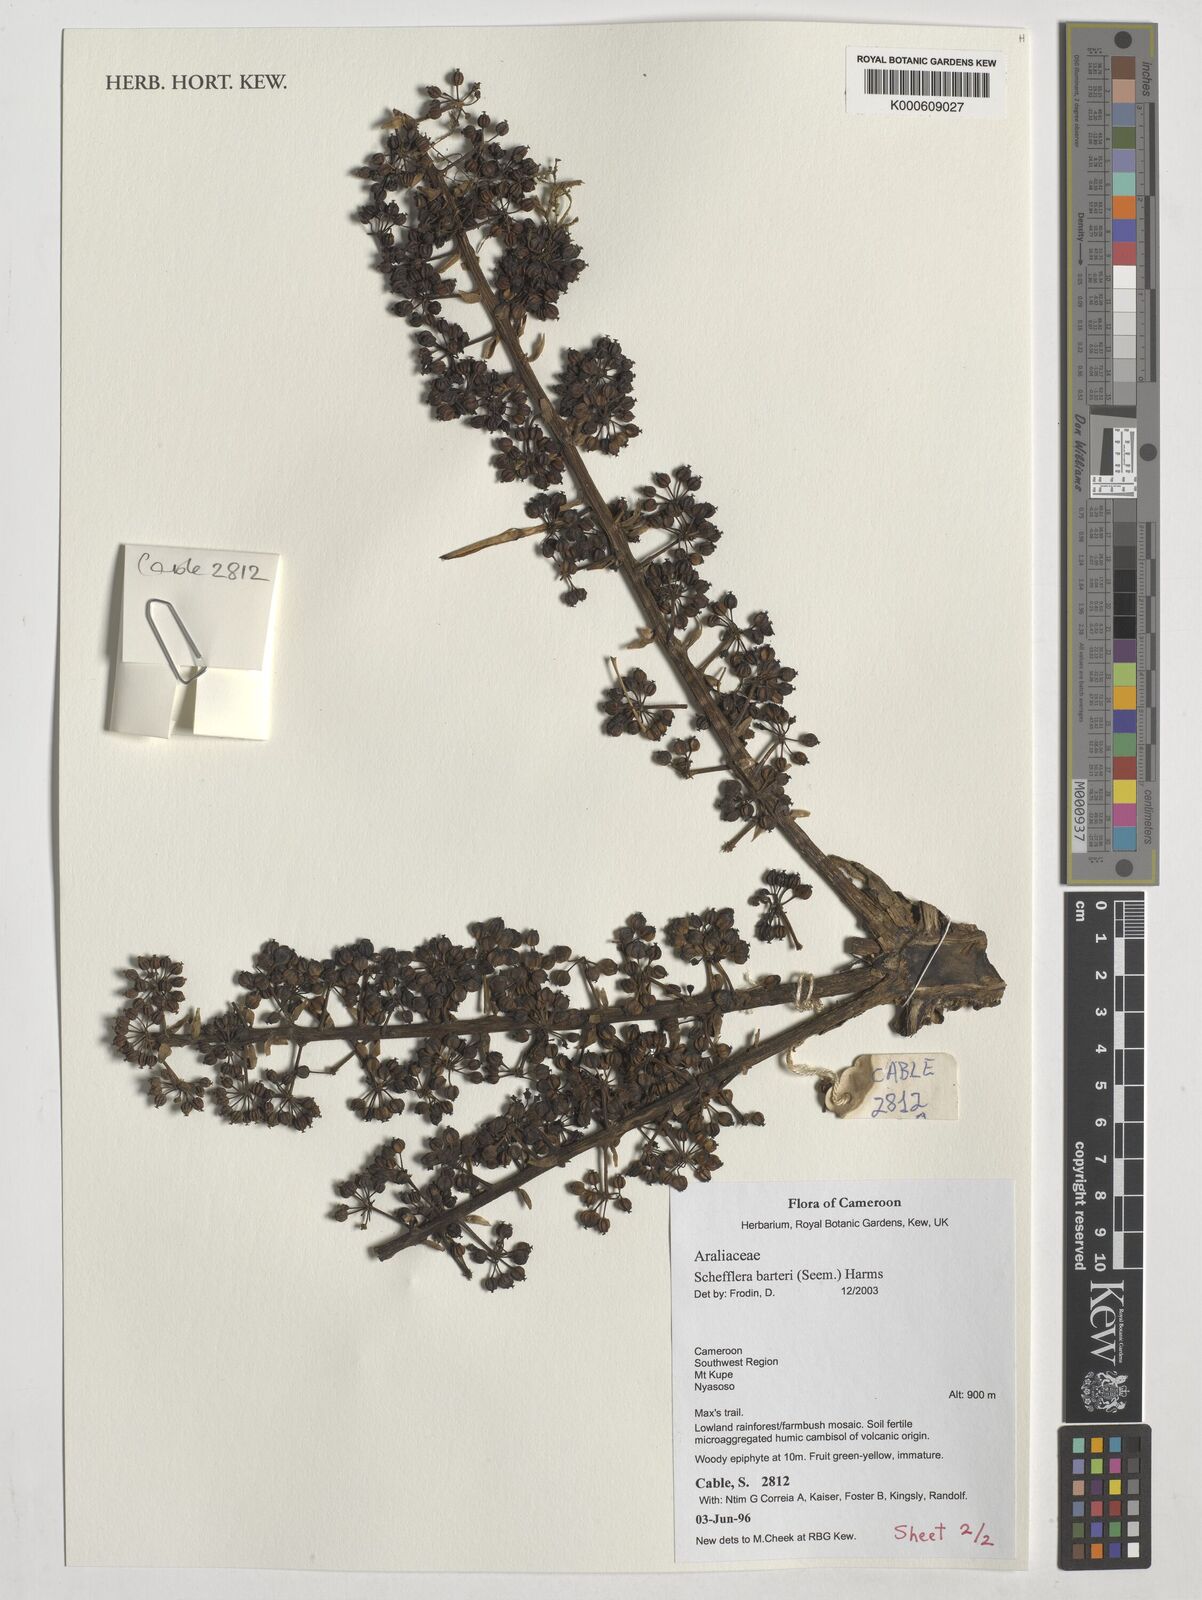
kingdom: Plantae
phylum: Tracheophyta
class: Magnoliopsida
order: Apiales
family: Araliaceae
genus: Astropanax
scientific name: Astropanax barteri
